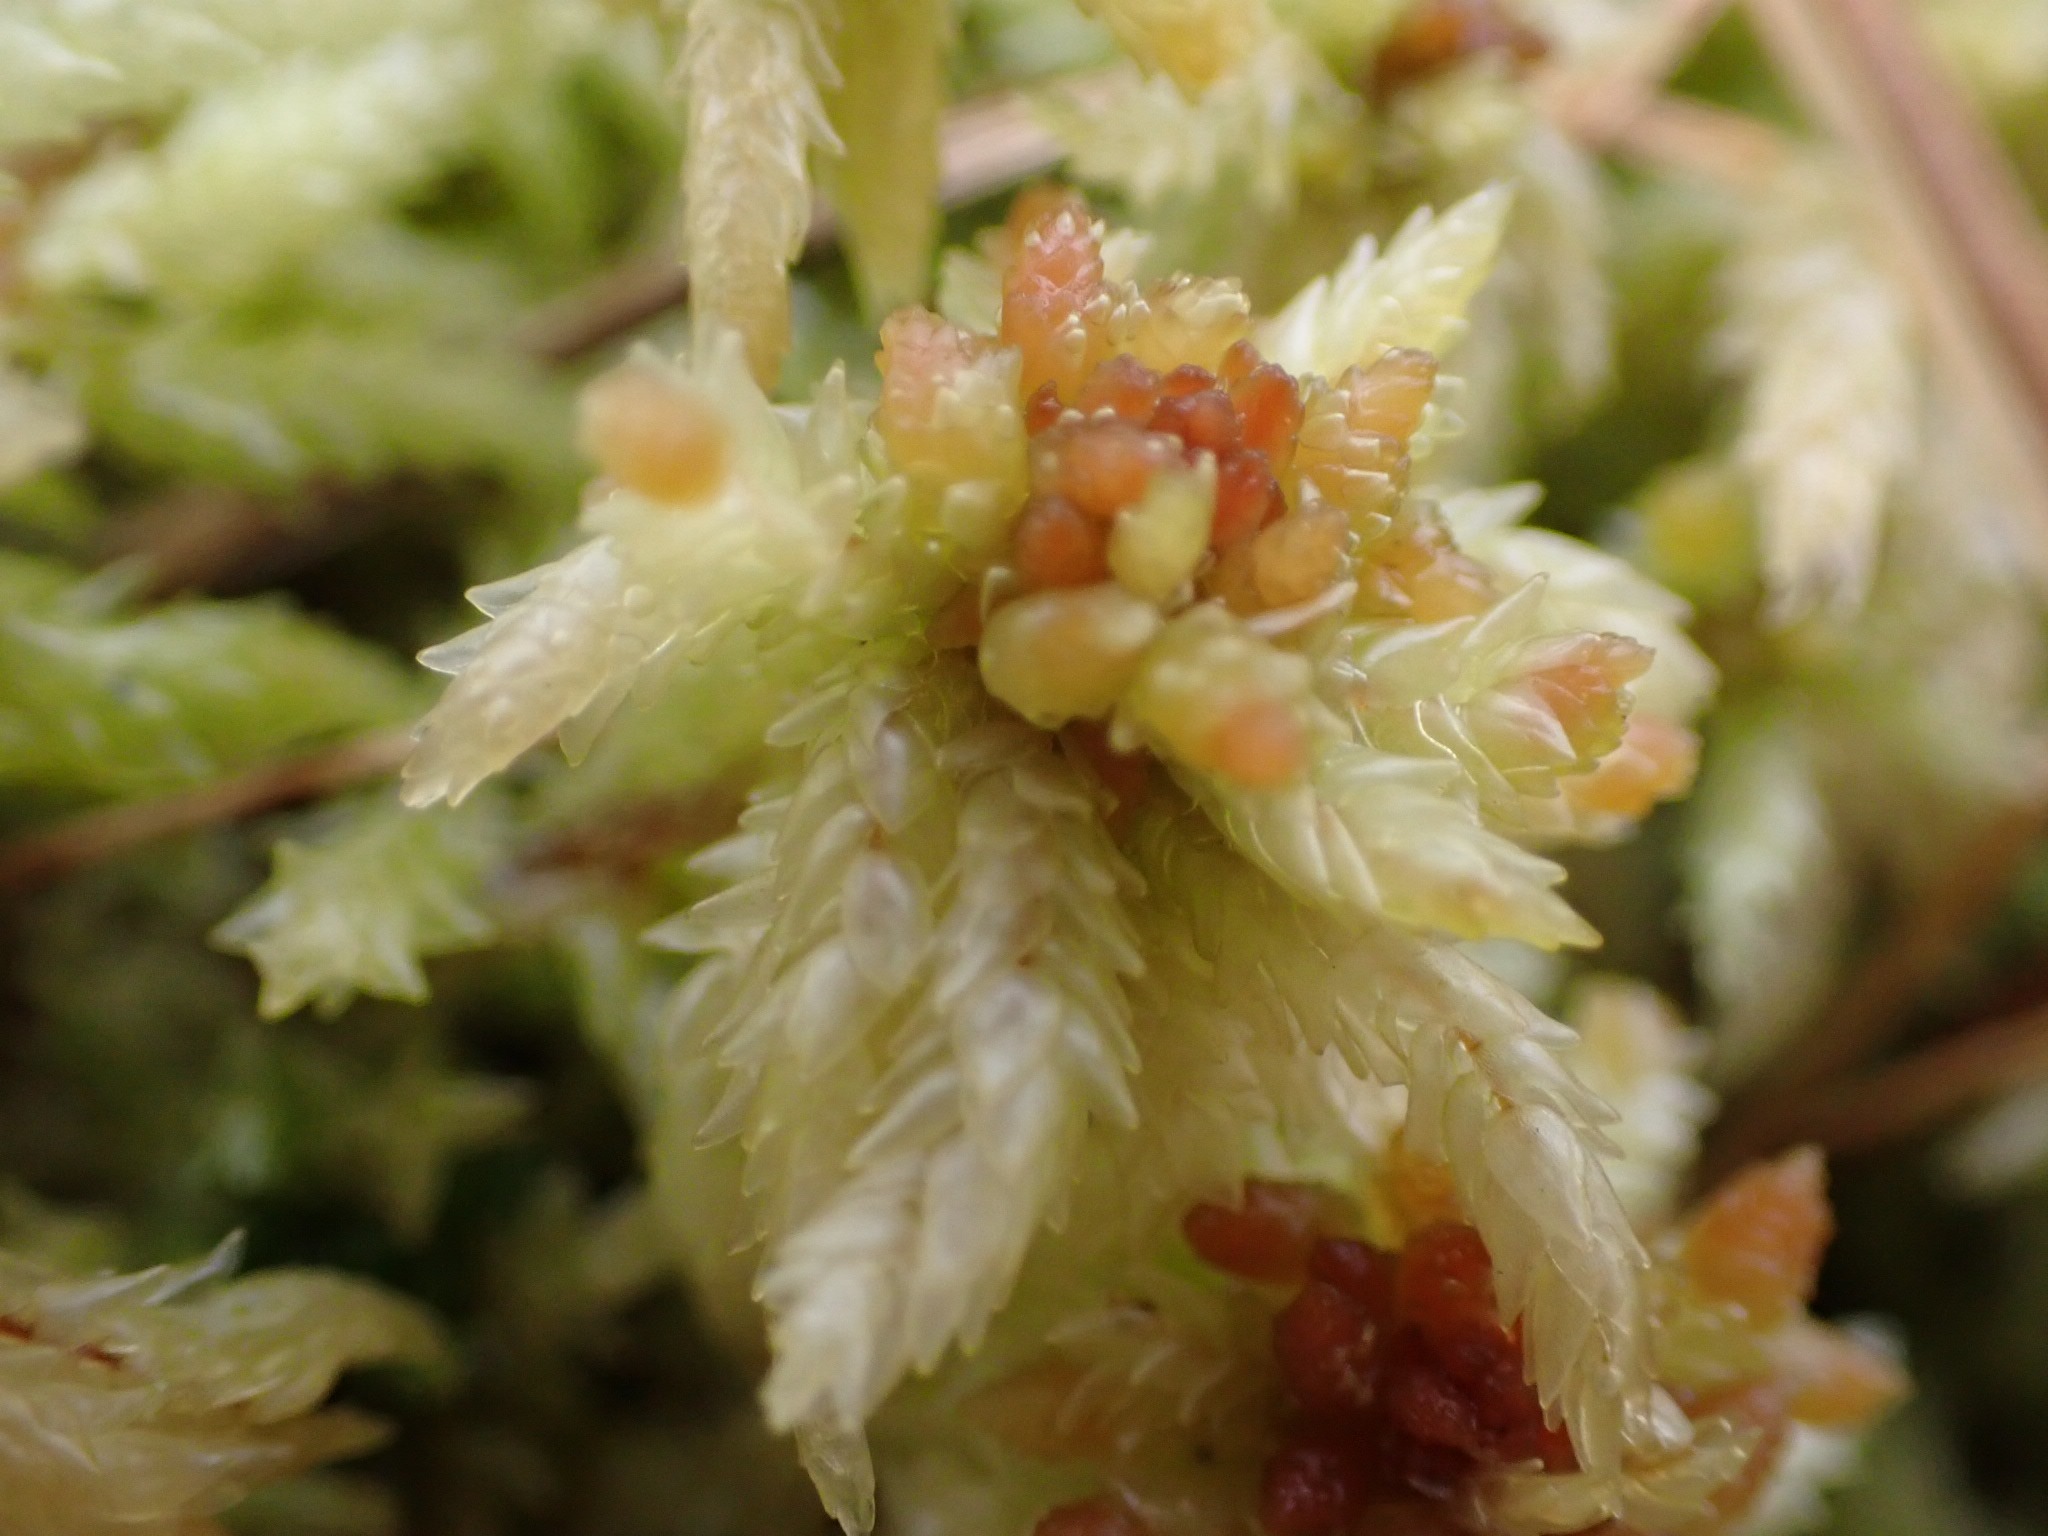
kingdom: Plantae
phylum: Bryophyta
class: Sphagnopsida
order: Sphagnales
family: Sphagnaceae
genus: Sphagnum
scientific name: Sphagnum palustre
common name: Almindelig tørvemos
